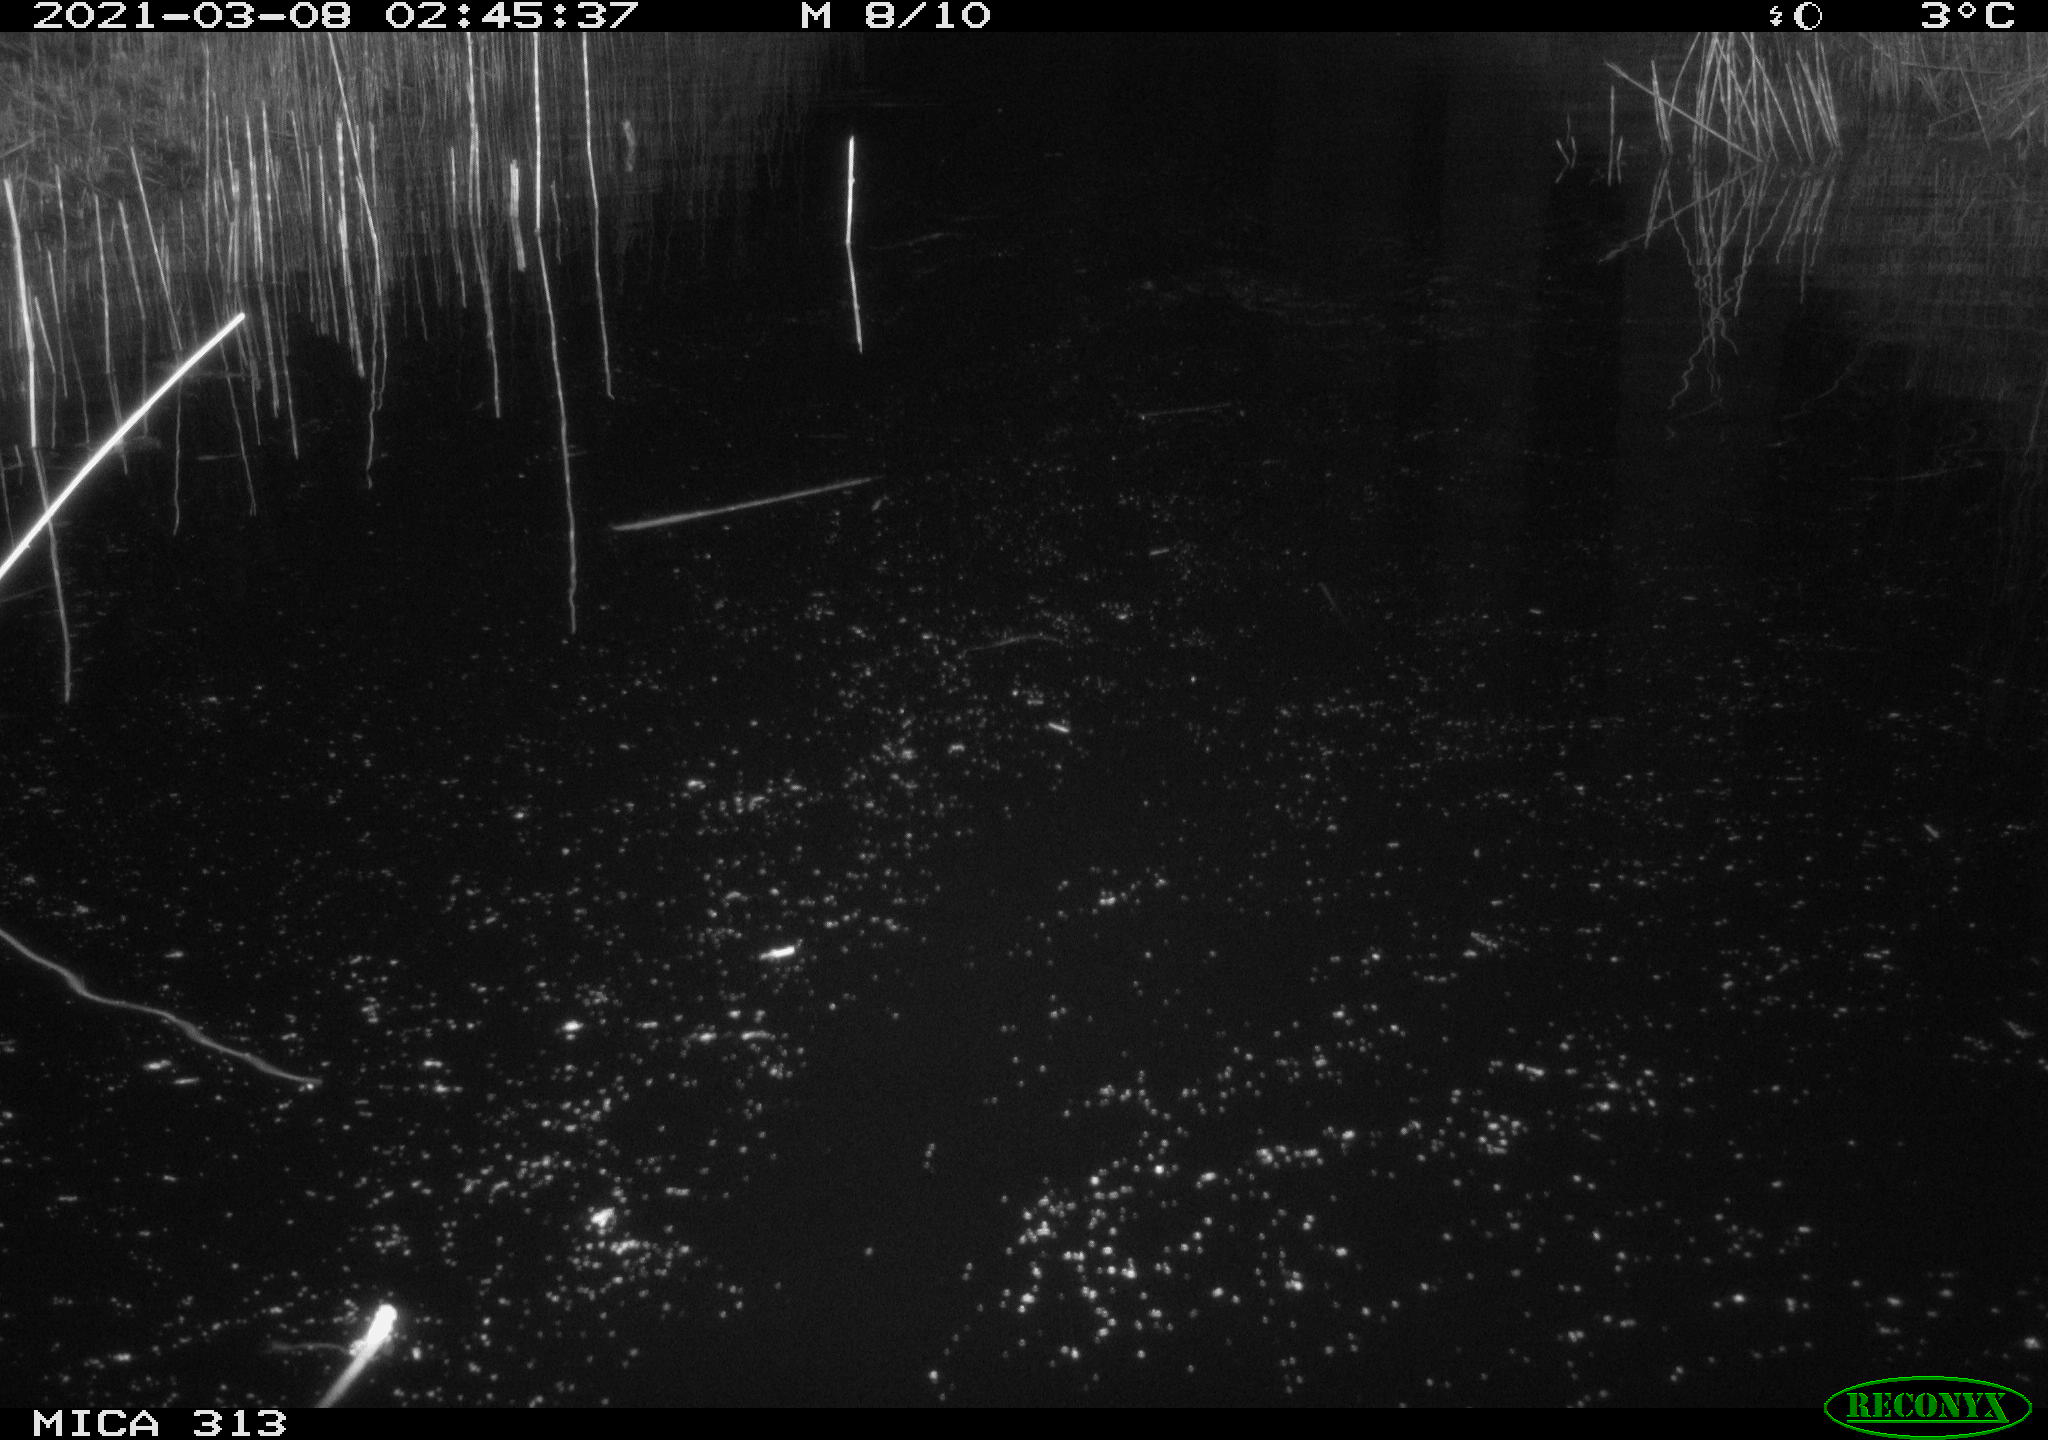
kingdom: Animalia
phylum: Chordata
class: Aves
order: Gruiformes
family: Rallidae
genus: Gallinula
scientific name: Gallinula chloropus
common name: Common moorhen
